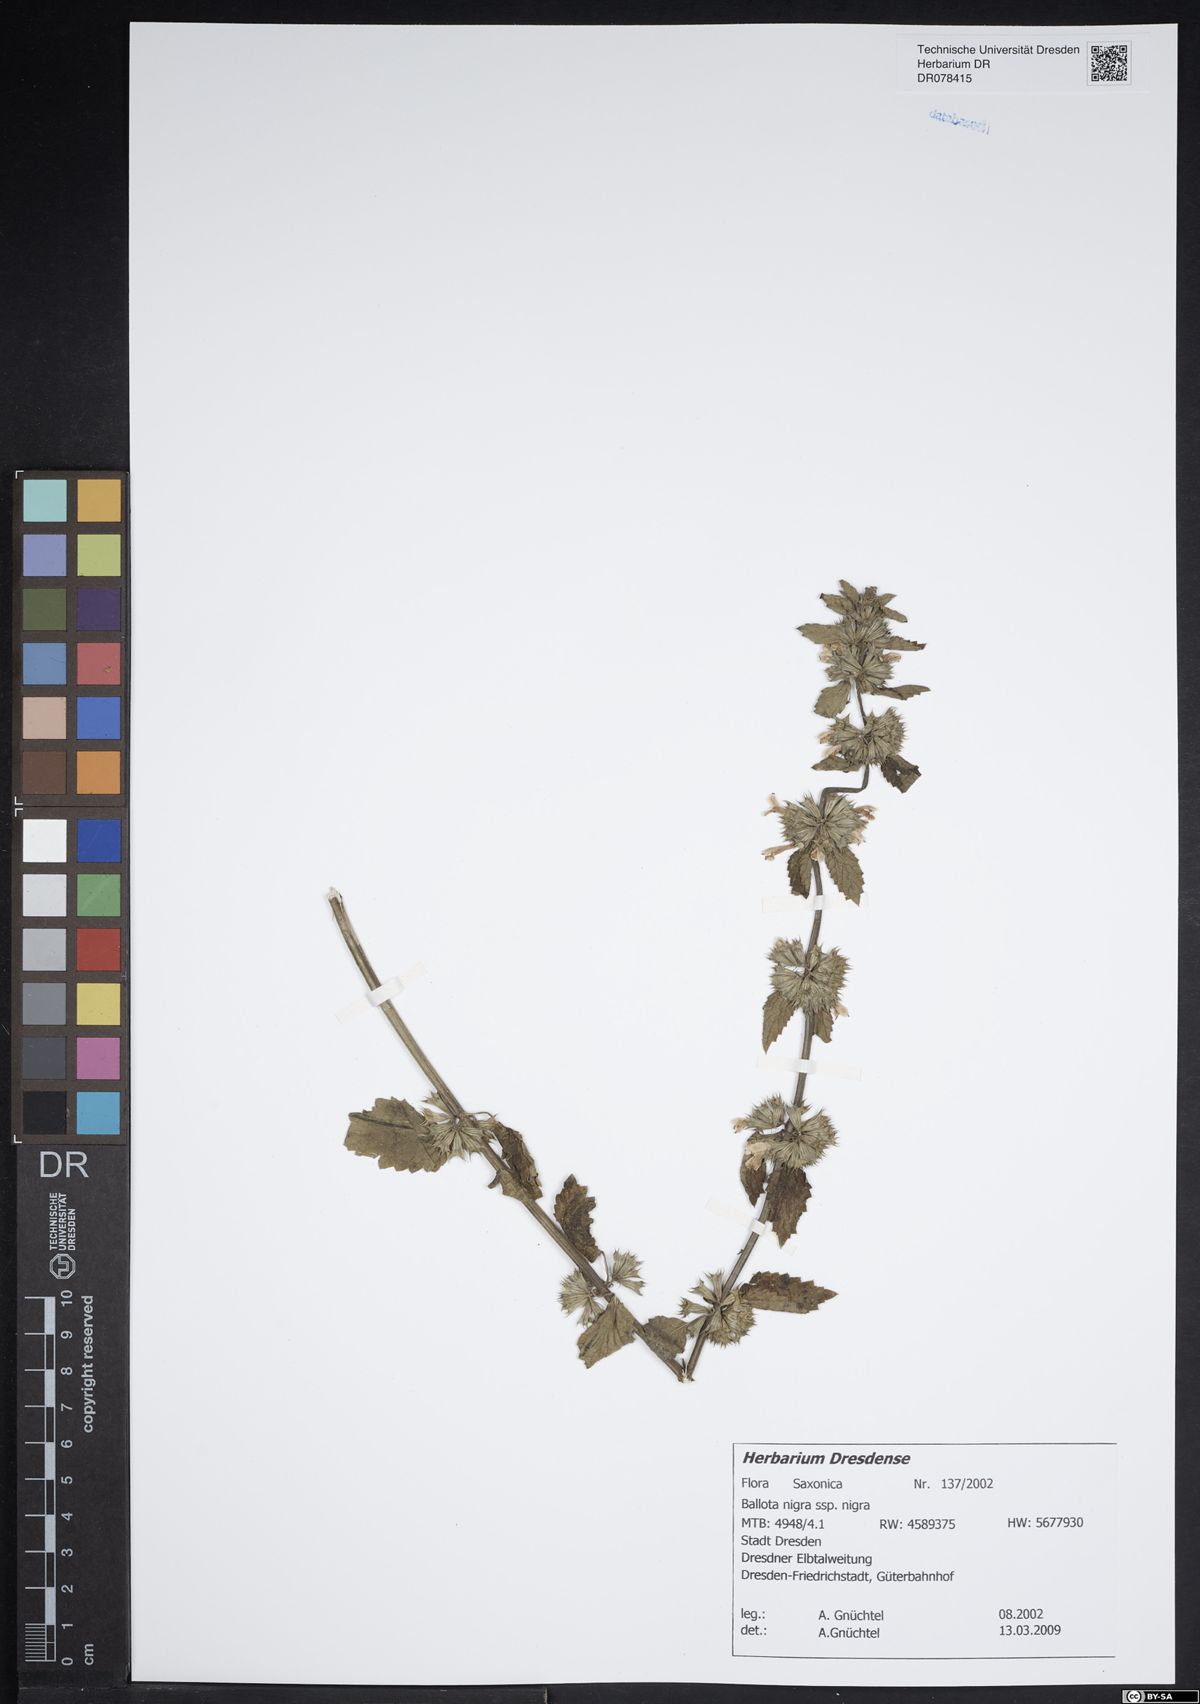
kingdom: Plantae
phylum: Tracheophyta
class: Magnoliopsida
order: Lamiales
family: Lamiaceae
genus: Ballota
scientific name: Ballota nigra
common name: Black horehound
